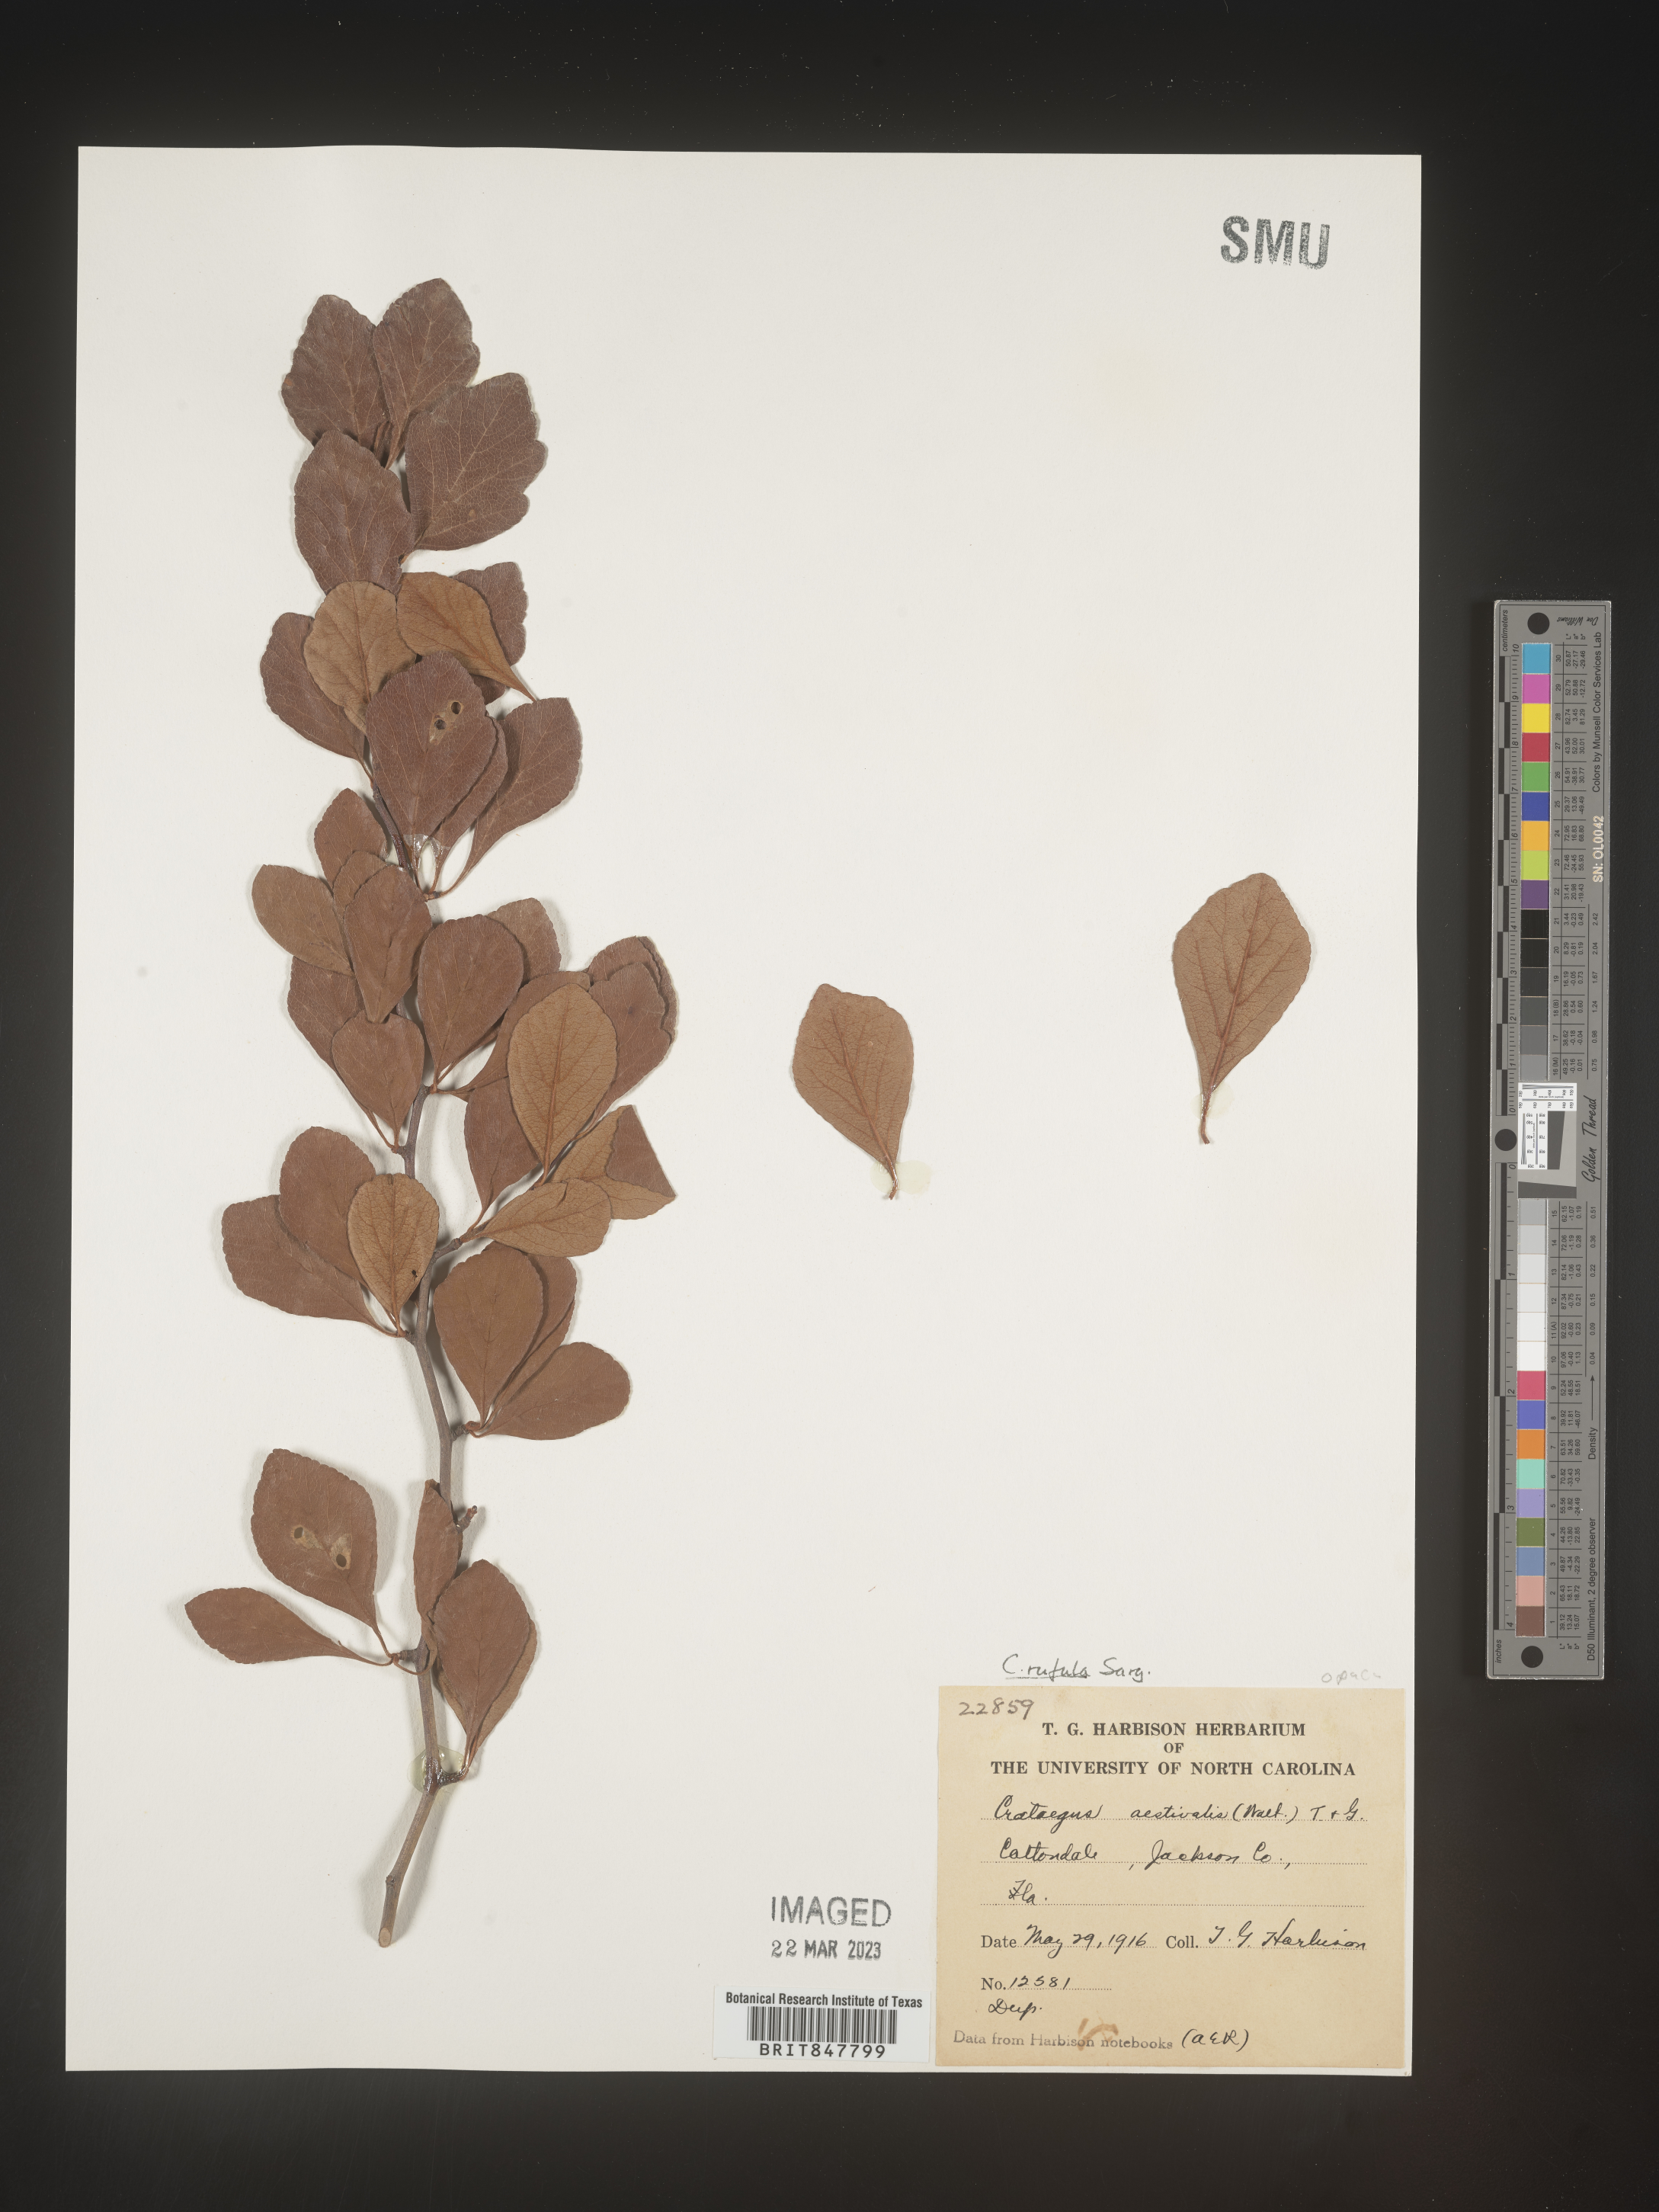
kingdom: Plantae
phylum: Tracheophyta
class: Magnoliopsida
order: Rosales
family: Rosaceae
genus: Crataegus
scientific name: Crataegus aestivalis
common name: Mayhaw
